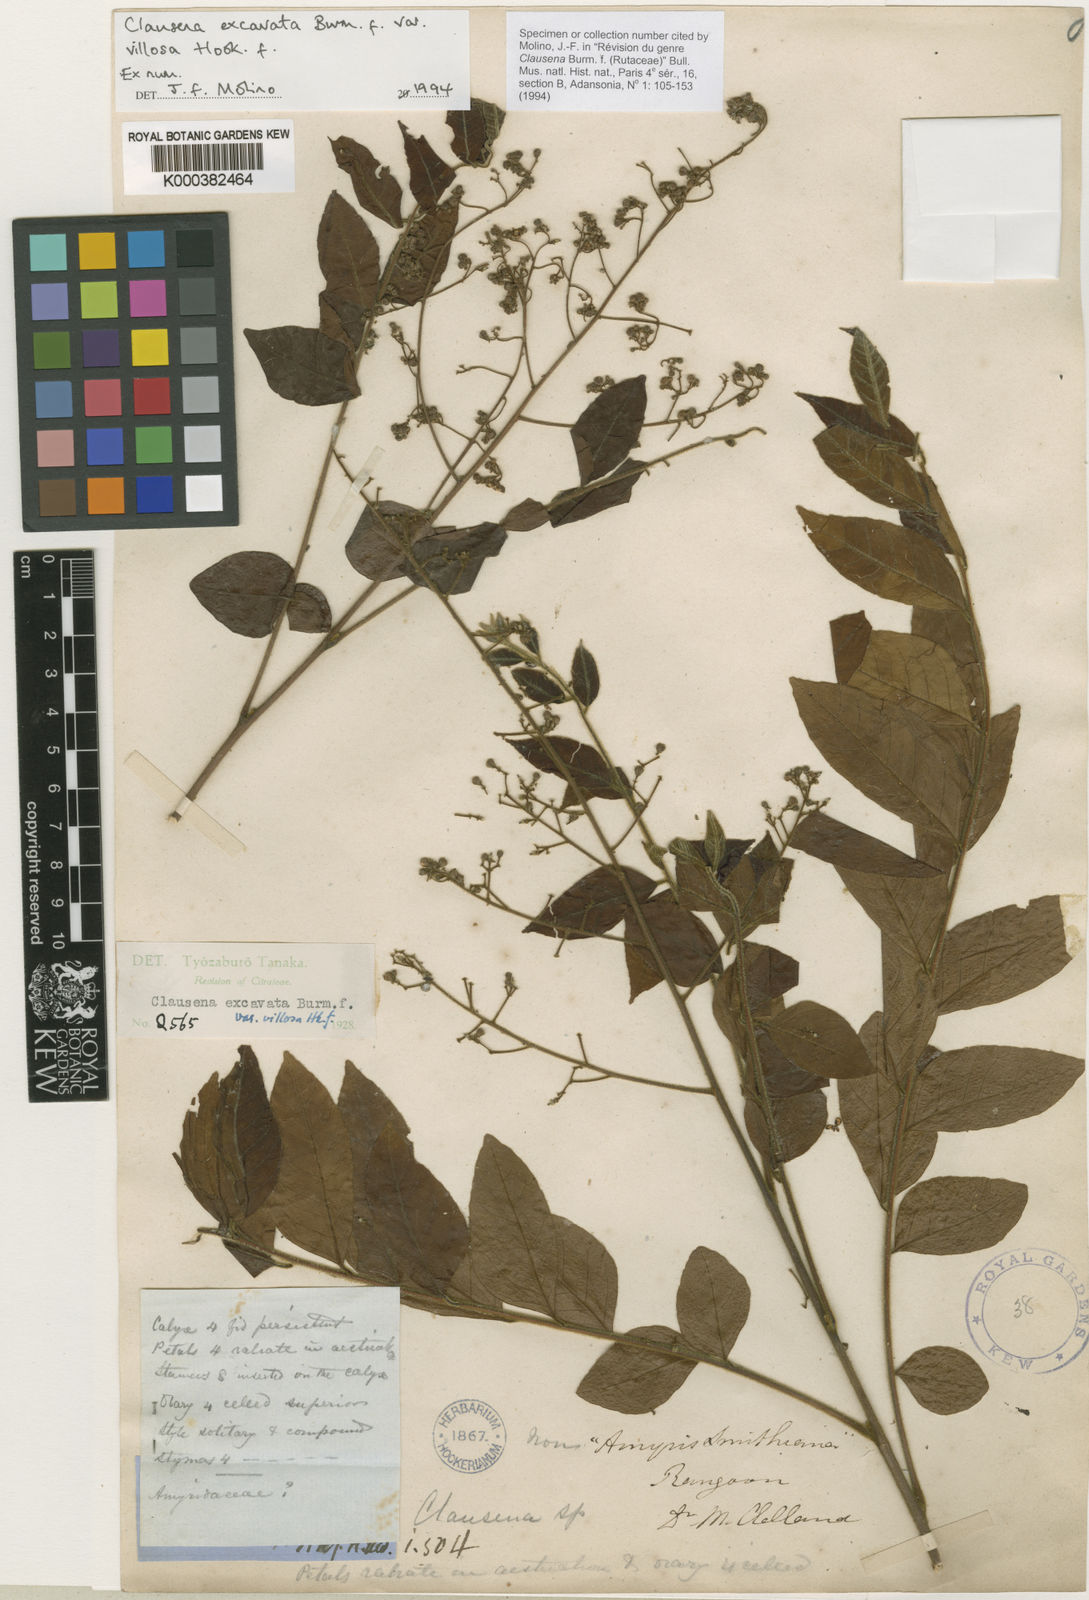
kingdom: Plantae
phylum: Tracheophyta
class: Magnoliopsida
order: Sapindales
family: Rutaceae
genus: Clausena
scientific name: Clausena excavata
